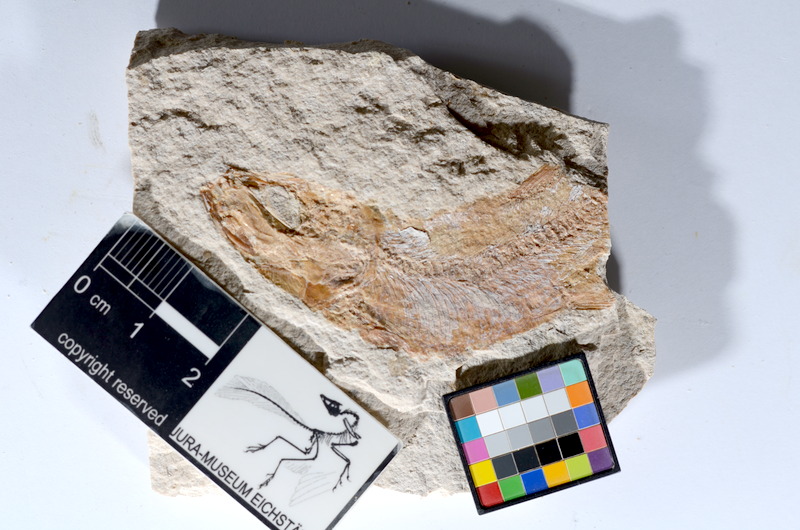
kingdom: Animalia
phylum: Chordata
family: Ascalaboidae
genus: Tharsis
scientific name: Tharsis dubius
